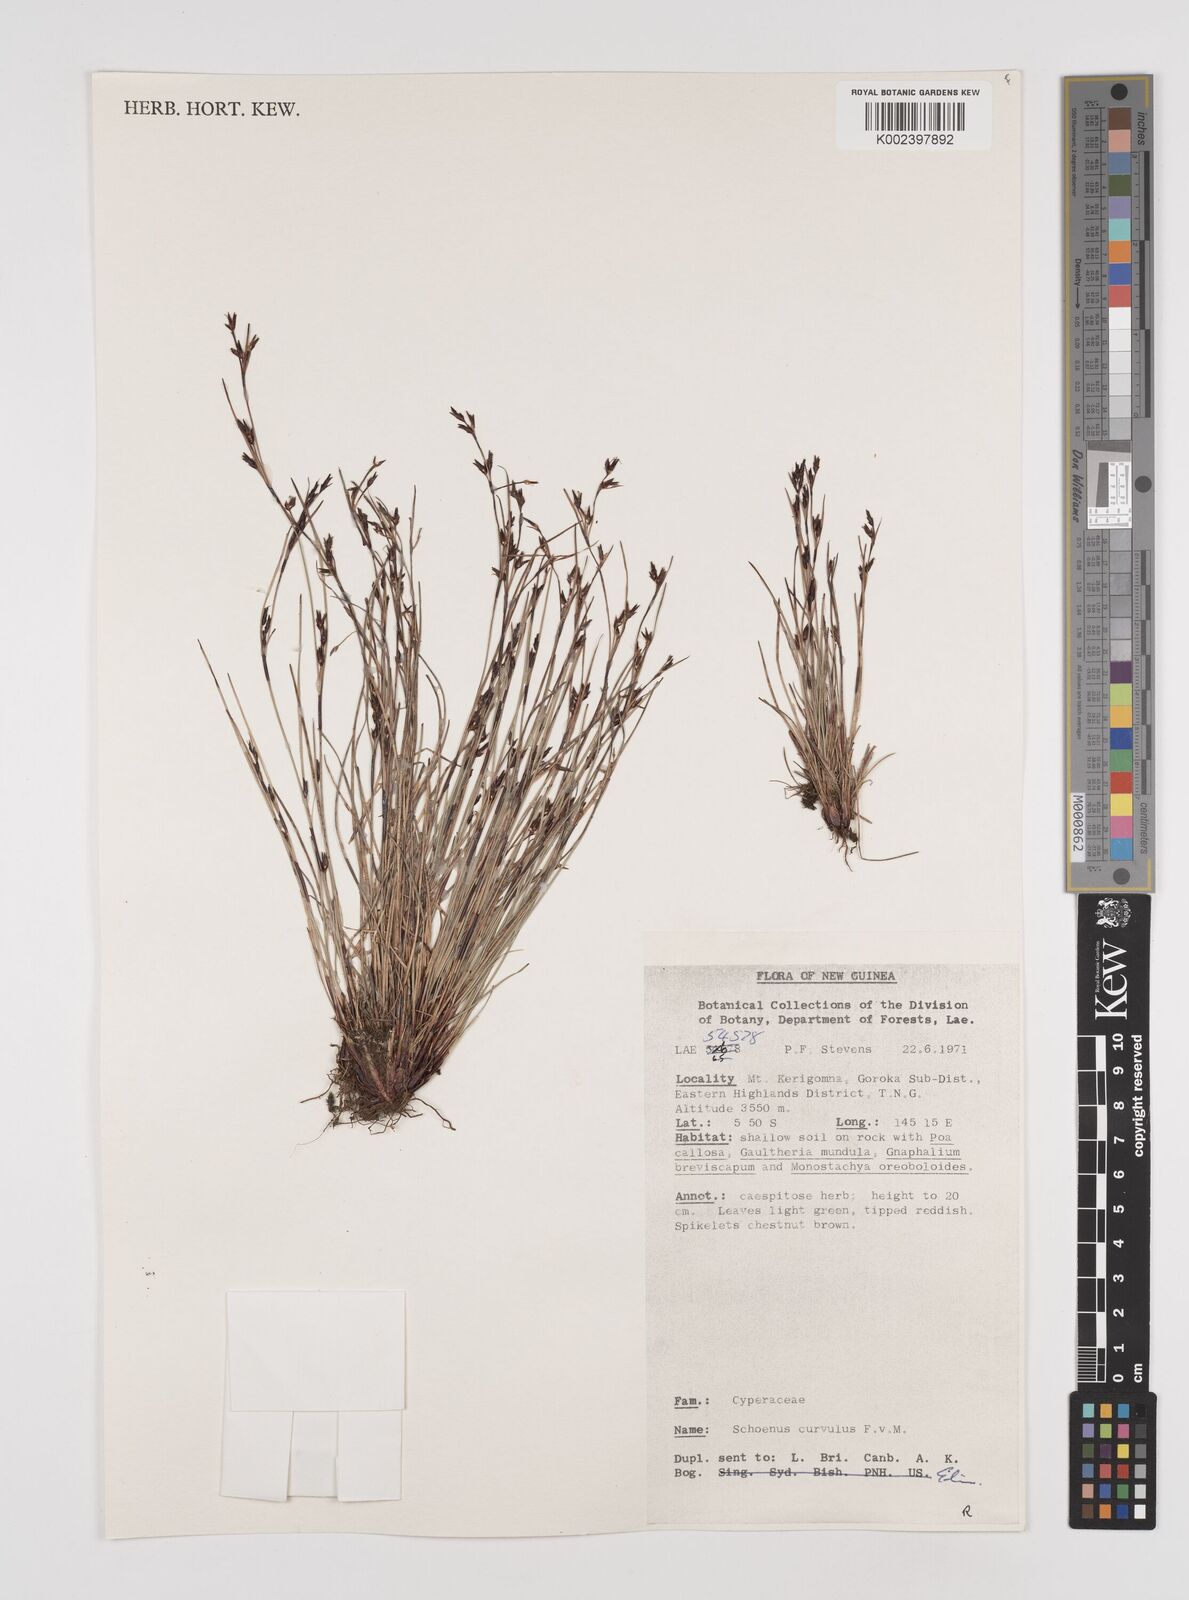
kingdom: Plantae
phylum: Tracheophyta
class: Liliopsida
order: Poales
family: Cyperaceae
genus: Schoenus
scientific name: Schoenus curvulus
